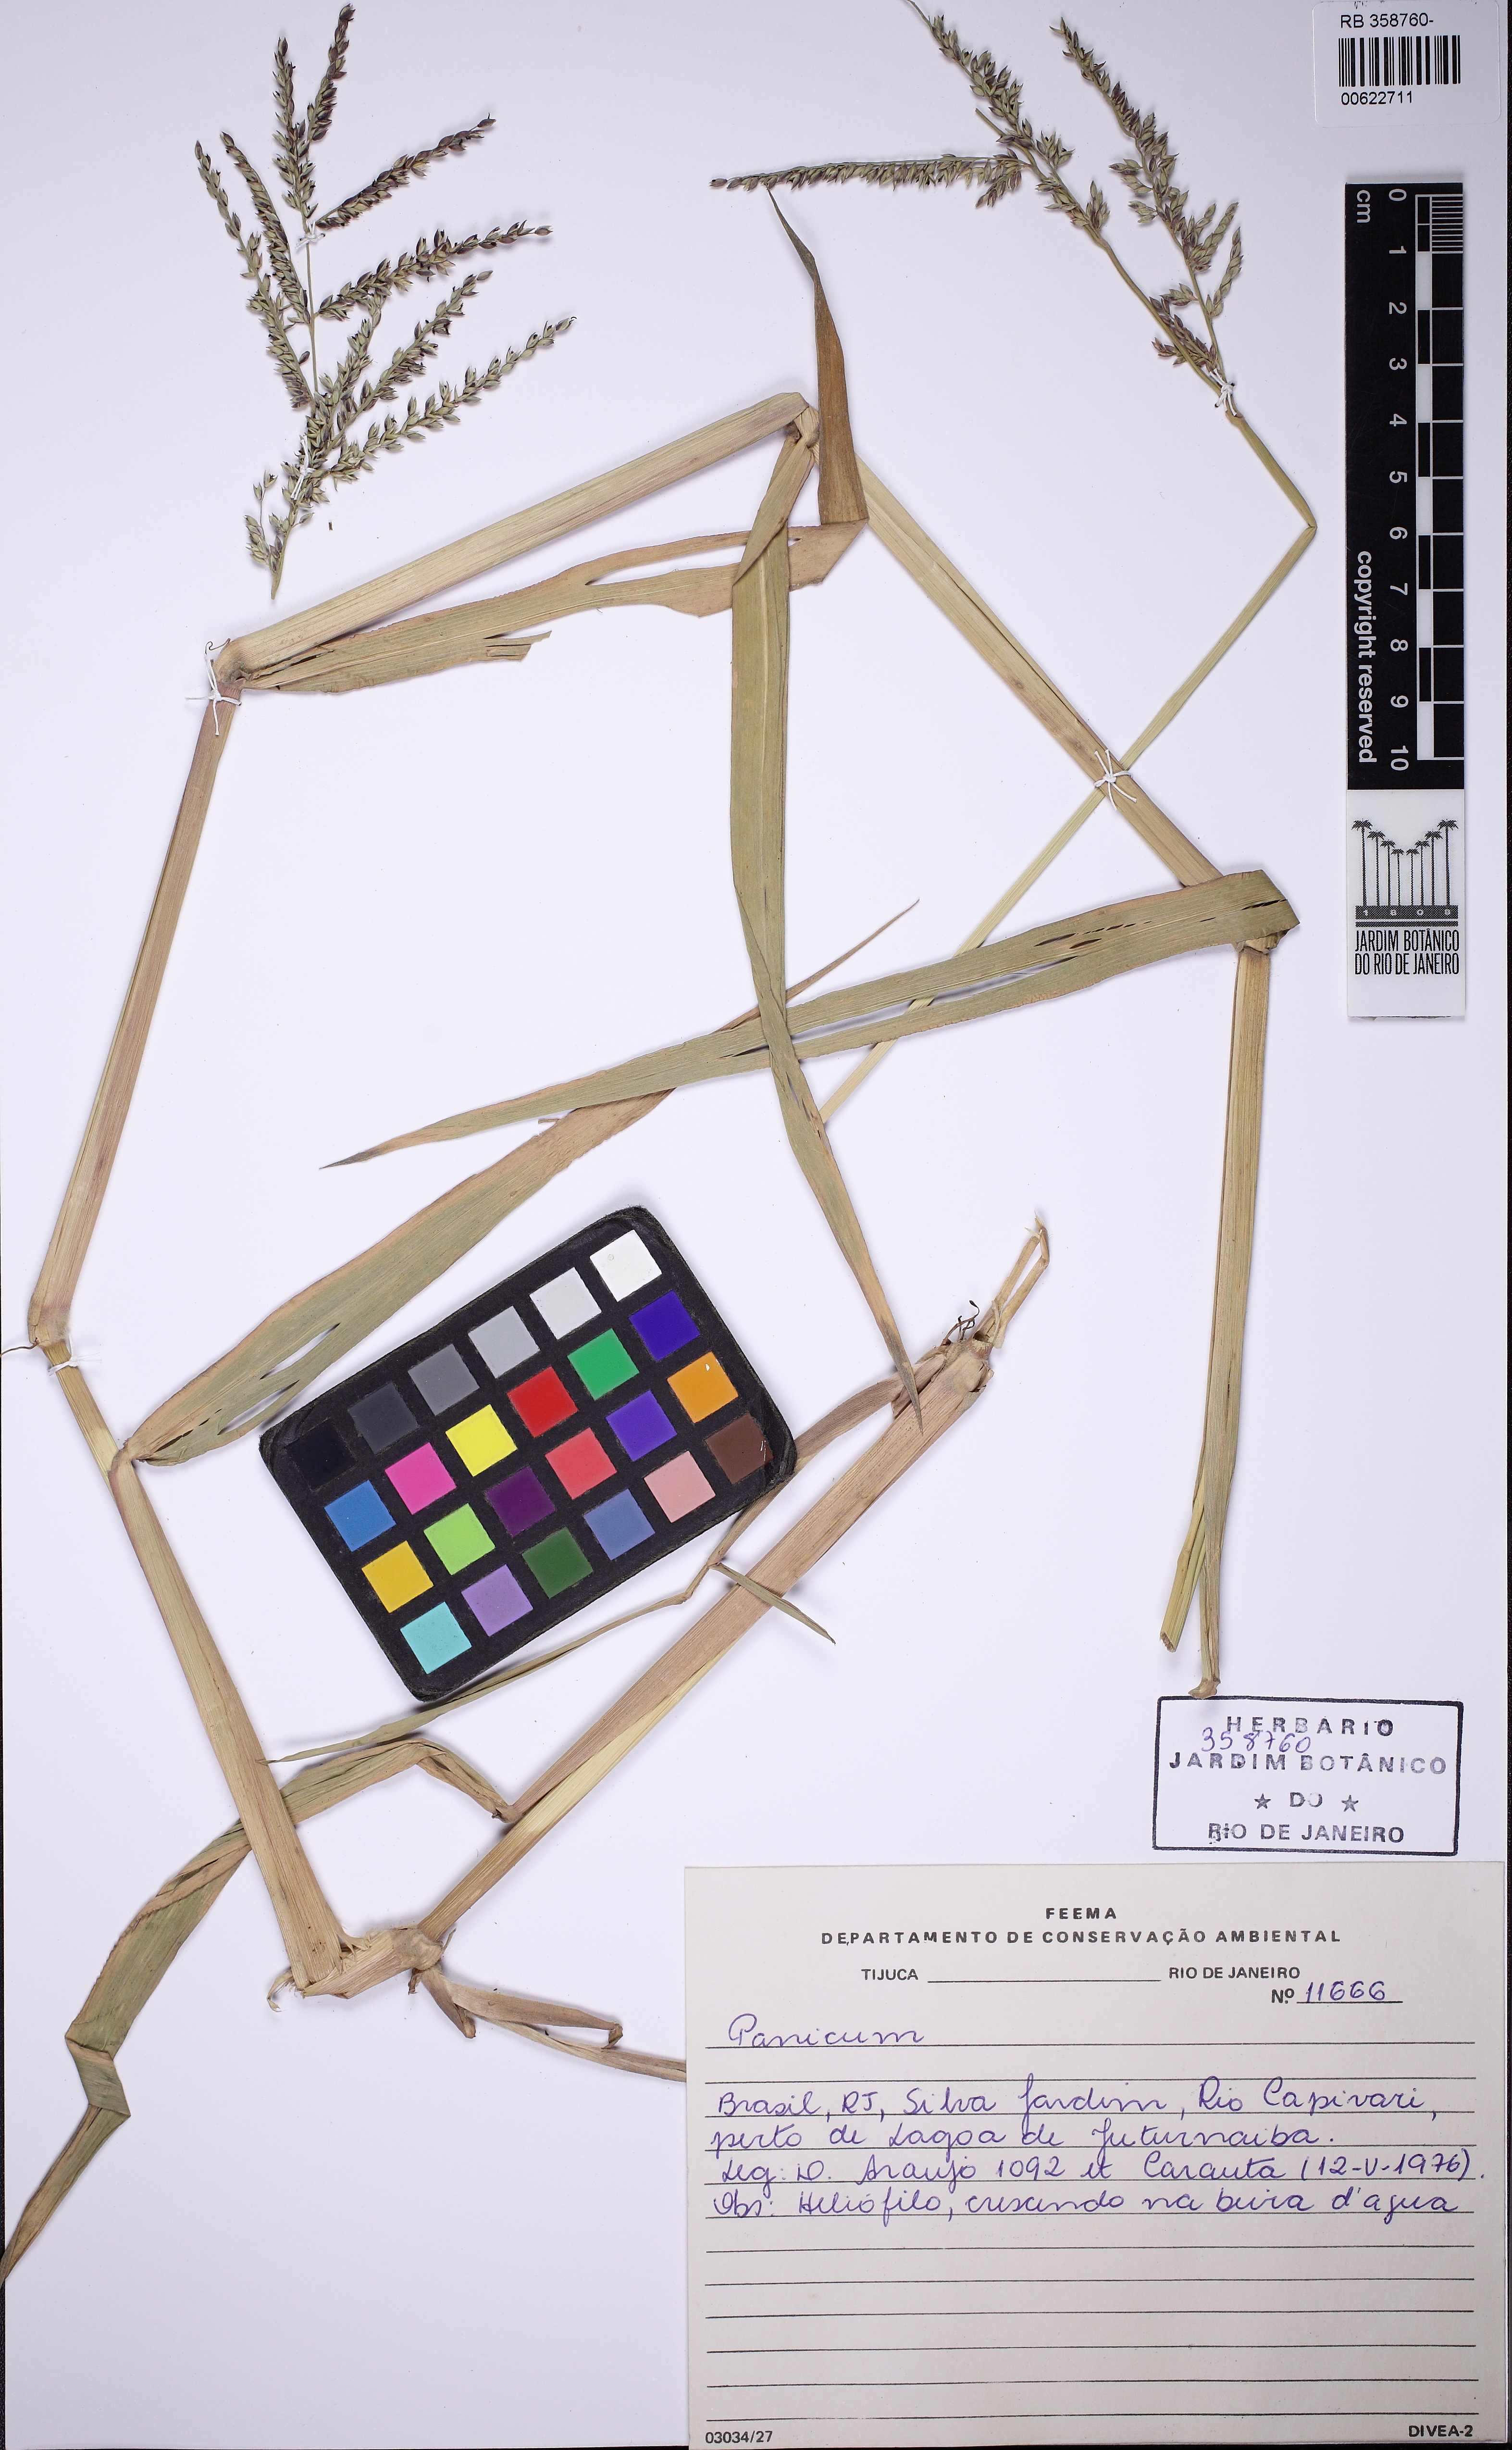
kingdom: Plantae
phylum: Tracheophyta
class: Liliopsida
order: Poales
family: Poaceae
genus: Urochloa
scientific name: Urochloa mutica
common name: Para grass
